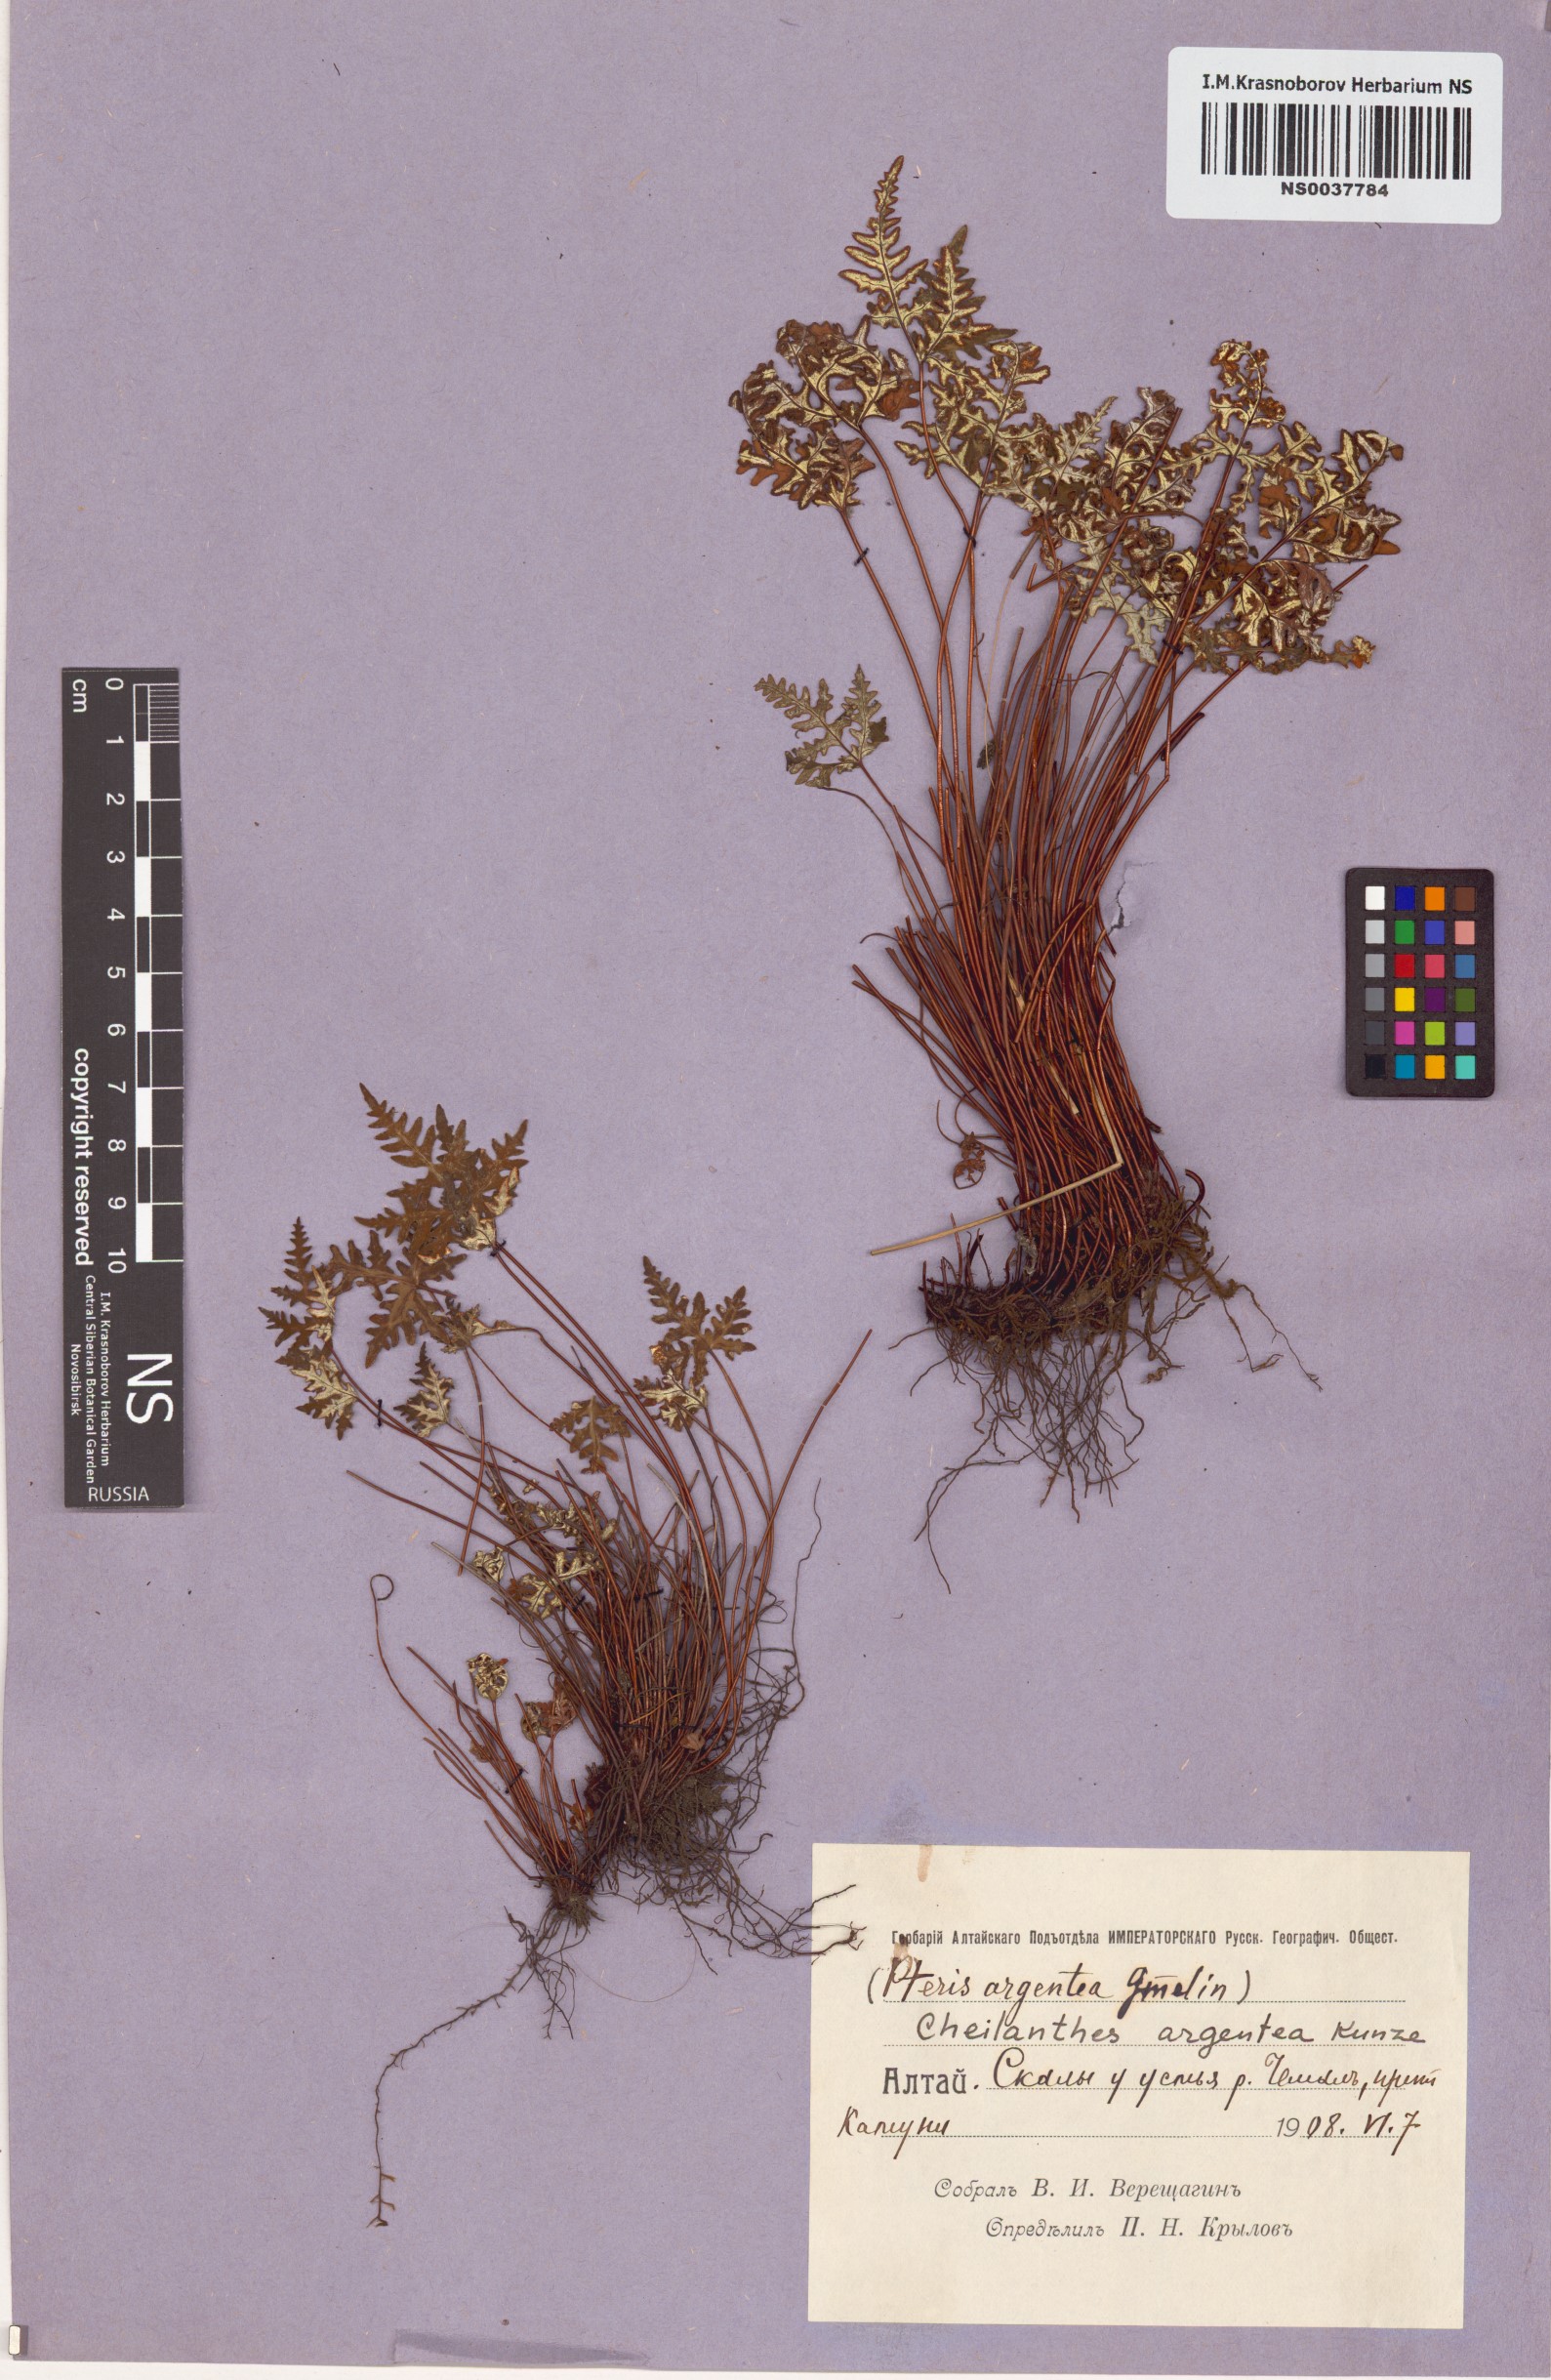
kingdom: Plantae
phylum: Tracheophyta
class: Polypodiopsida
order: Polypodiales
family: Pteridaceae
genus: Aleuritopteris
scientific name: Aleuritopteris argentea
